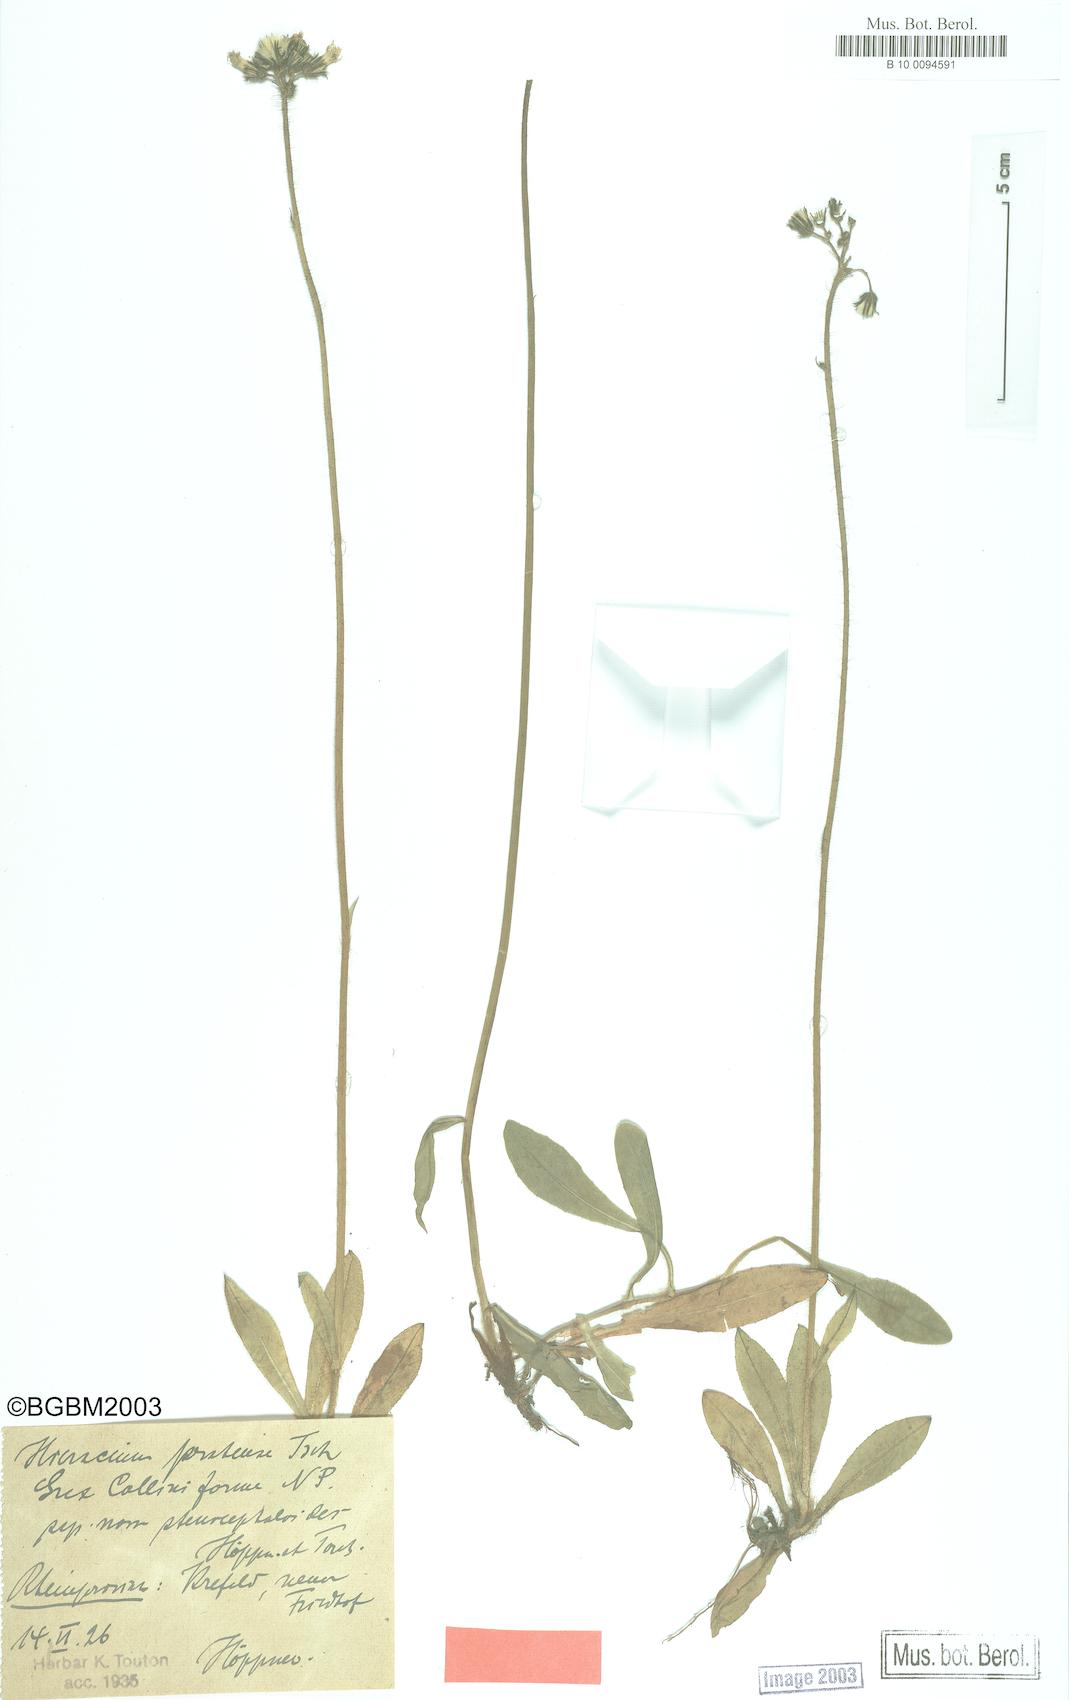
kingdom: Plantae
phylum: Tracheophyta
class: Magnoliopsida
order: Asterales
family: Asteraceae
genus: Pilosella
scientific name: Pilosella caespitosa
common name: Yellow fox-and-cubs
